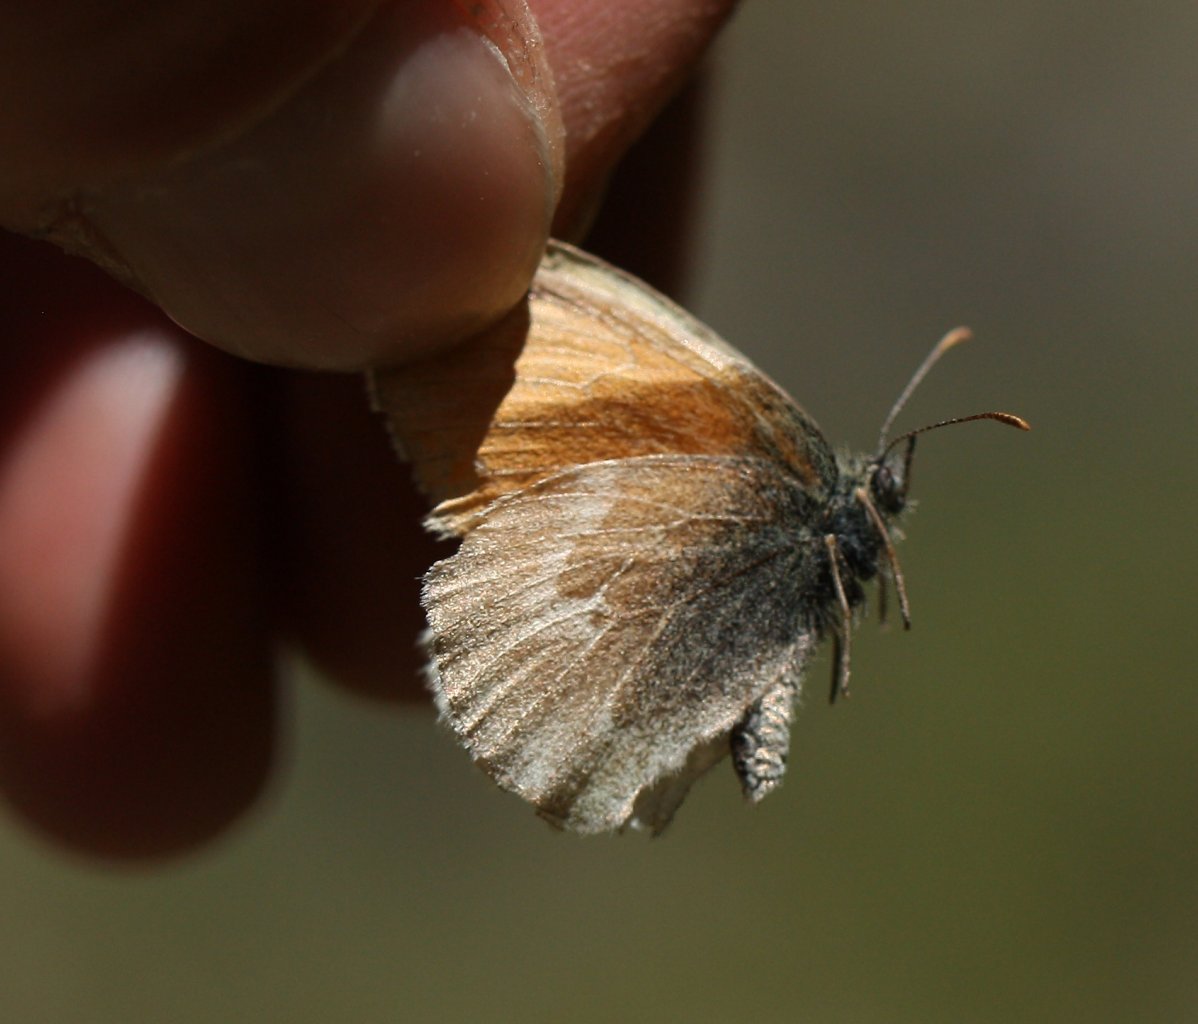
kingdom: Animalia
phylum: Arthropoda
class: Insecta
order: Lepidoptera
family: Nymphalidae
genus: Coenonympha
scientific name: Coenonympha tullia
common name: Large Heath
